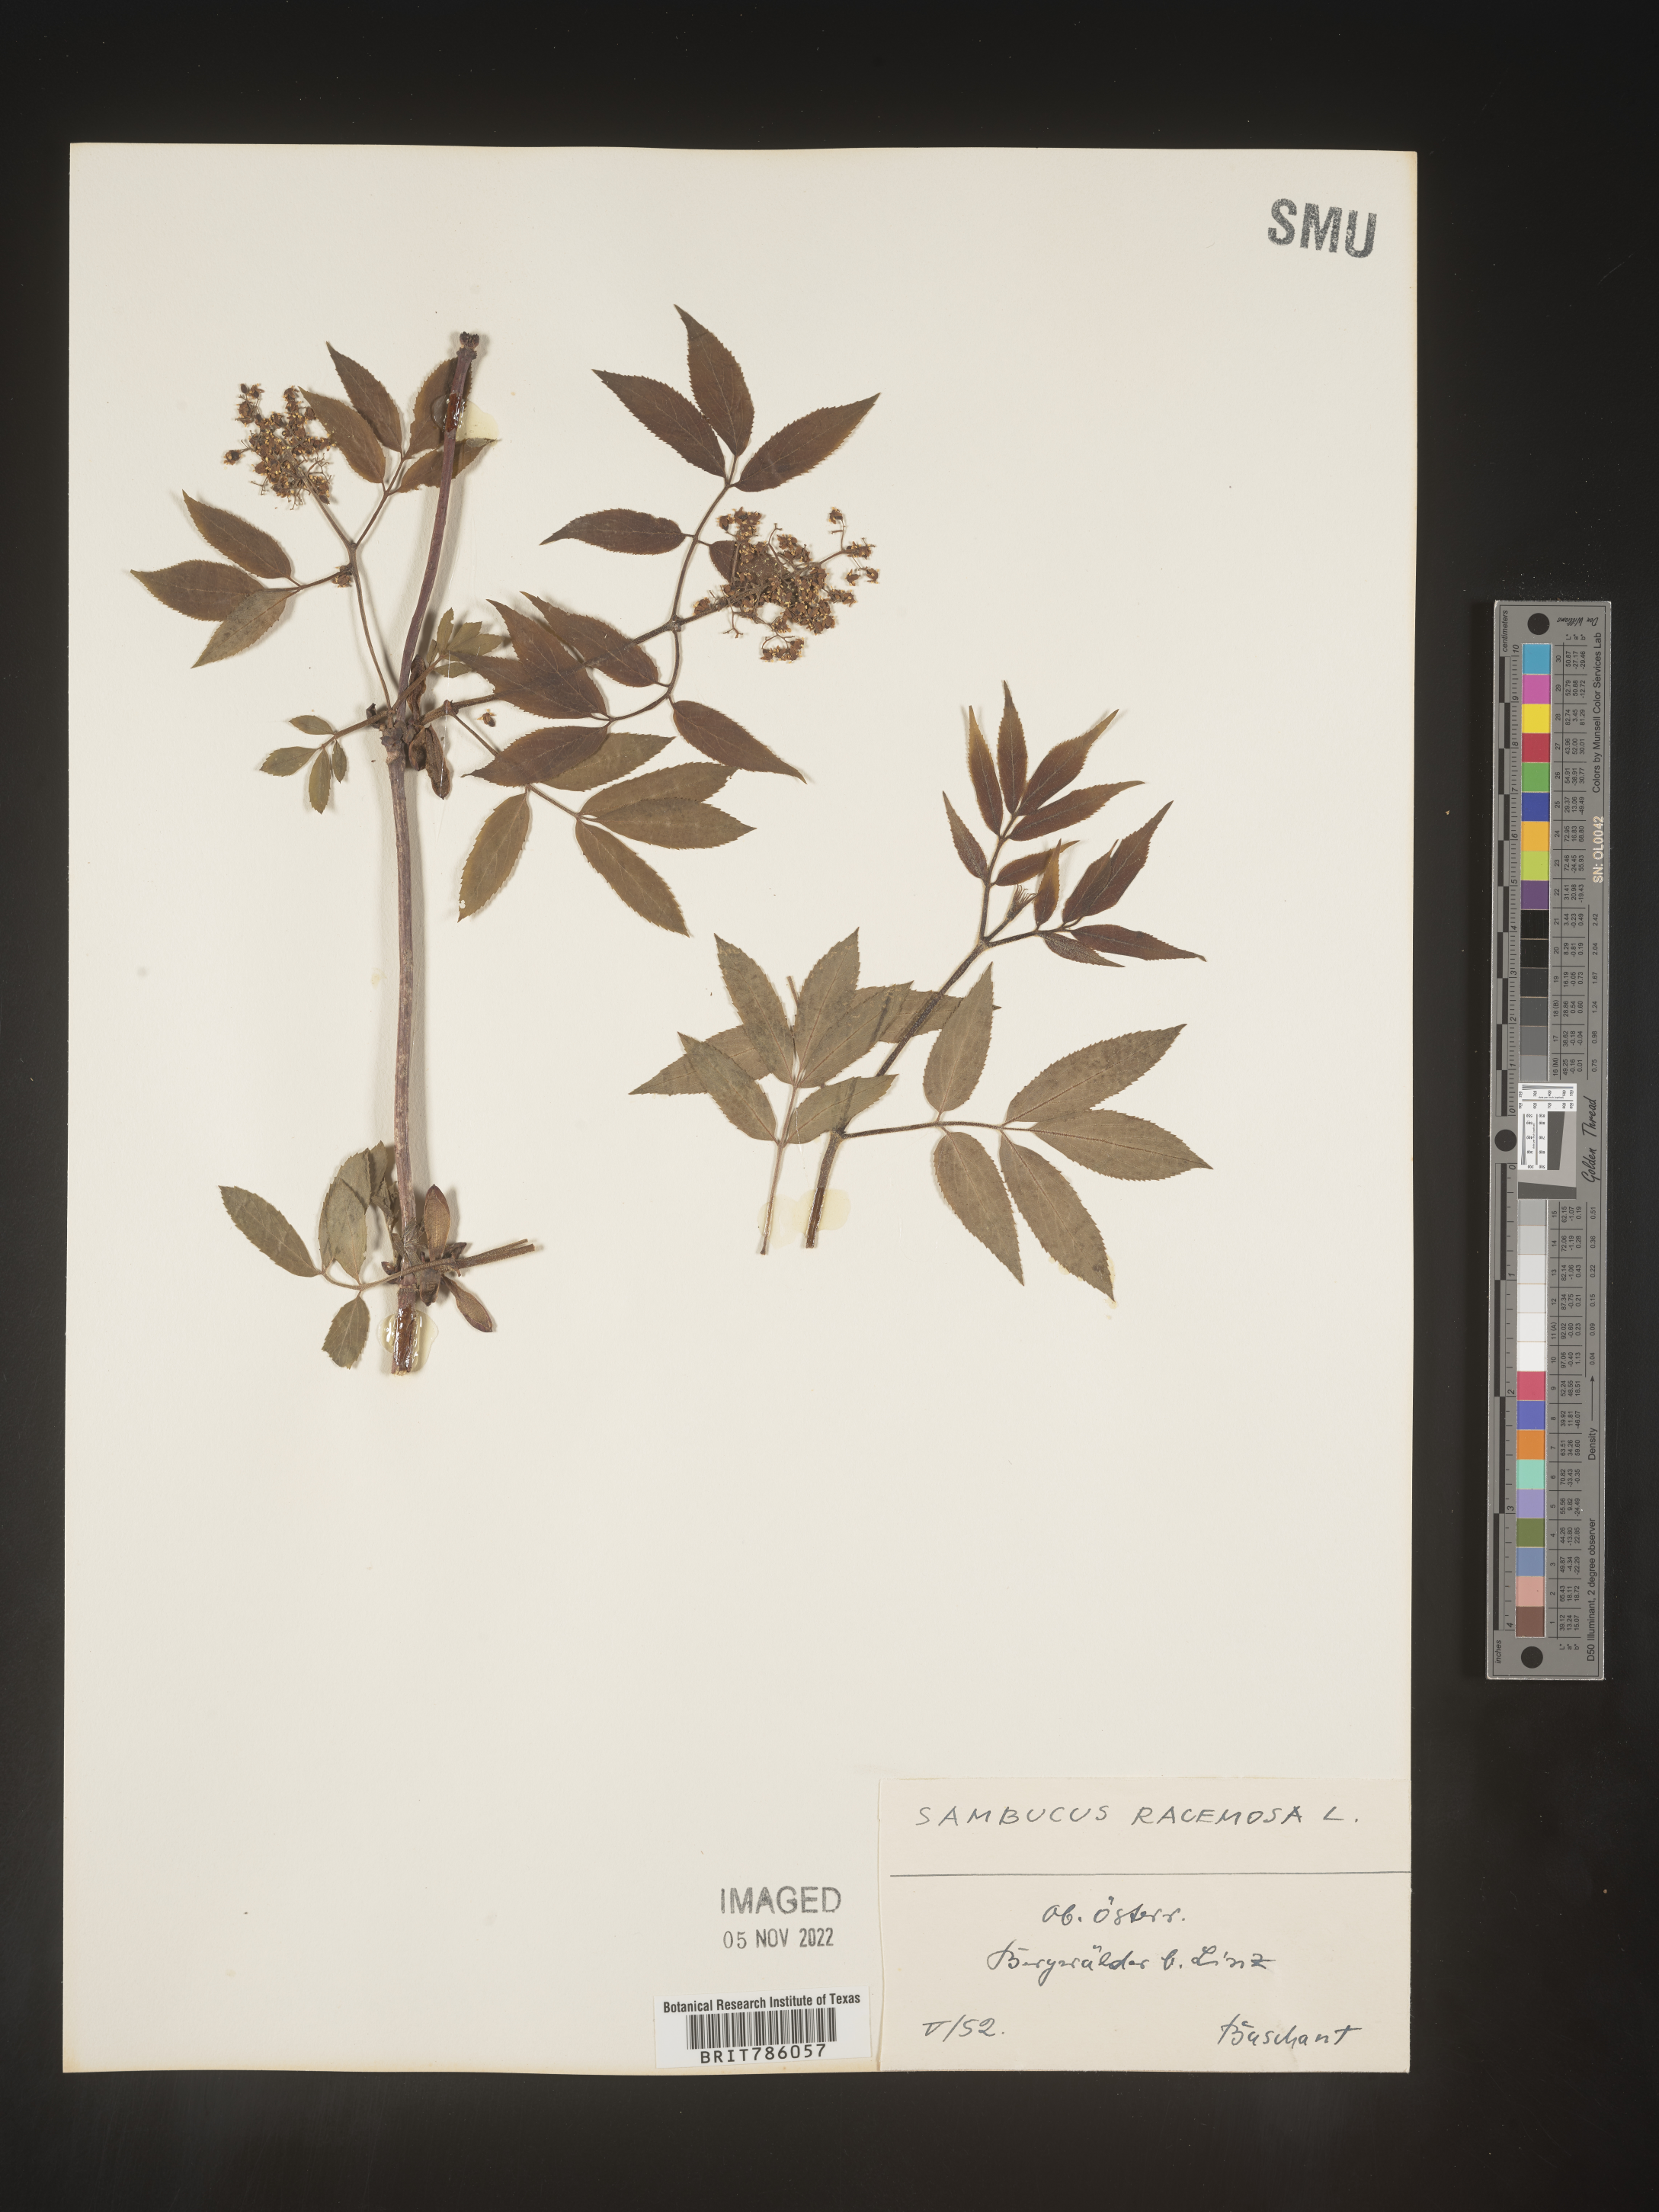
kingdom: Plantae
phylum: Tracheophyta
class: Magnoliopsida
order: Dipsacales
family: Viburnaceae
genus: Sambucus
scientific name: Sambucus
